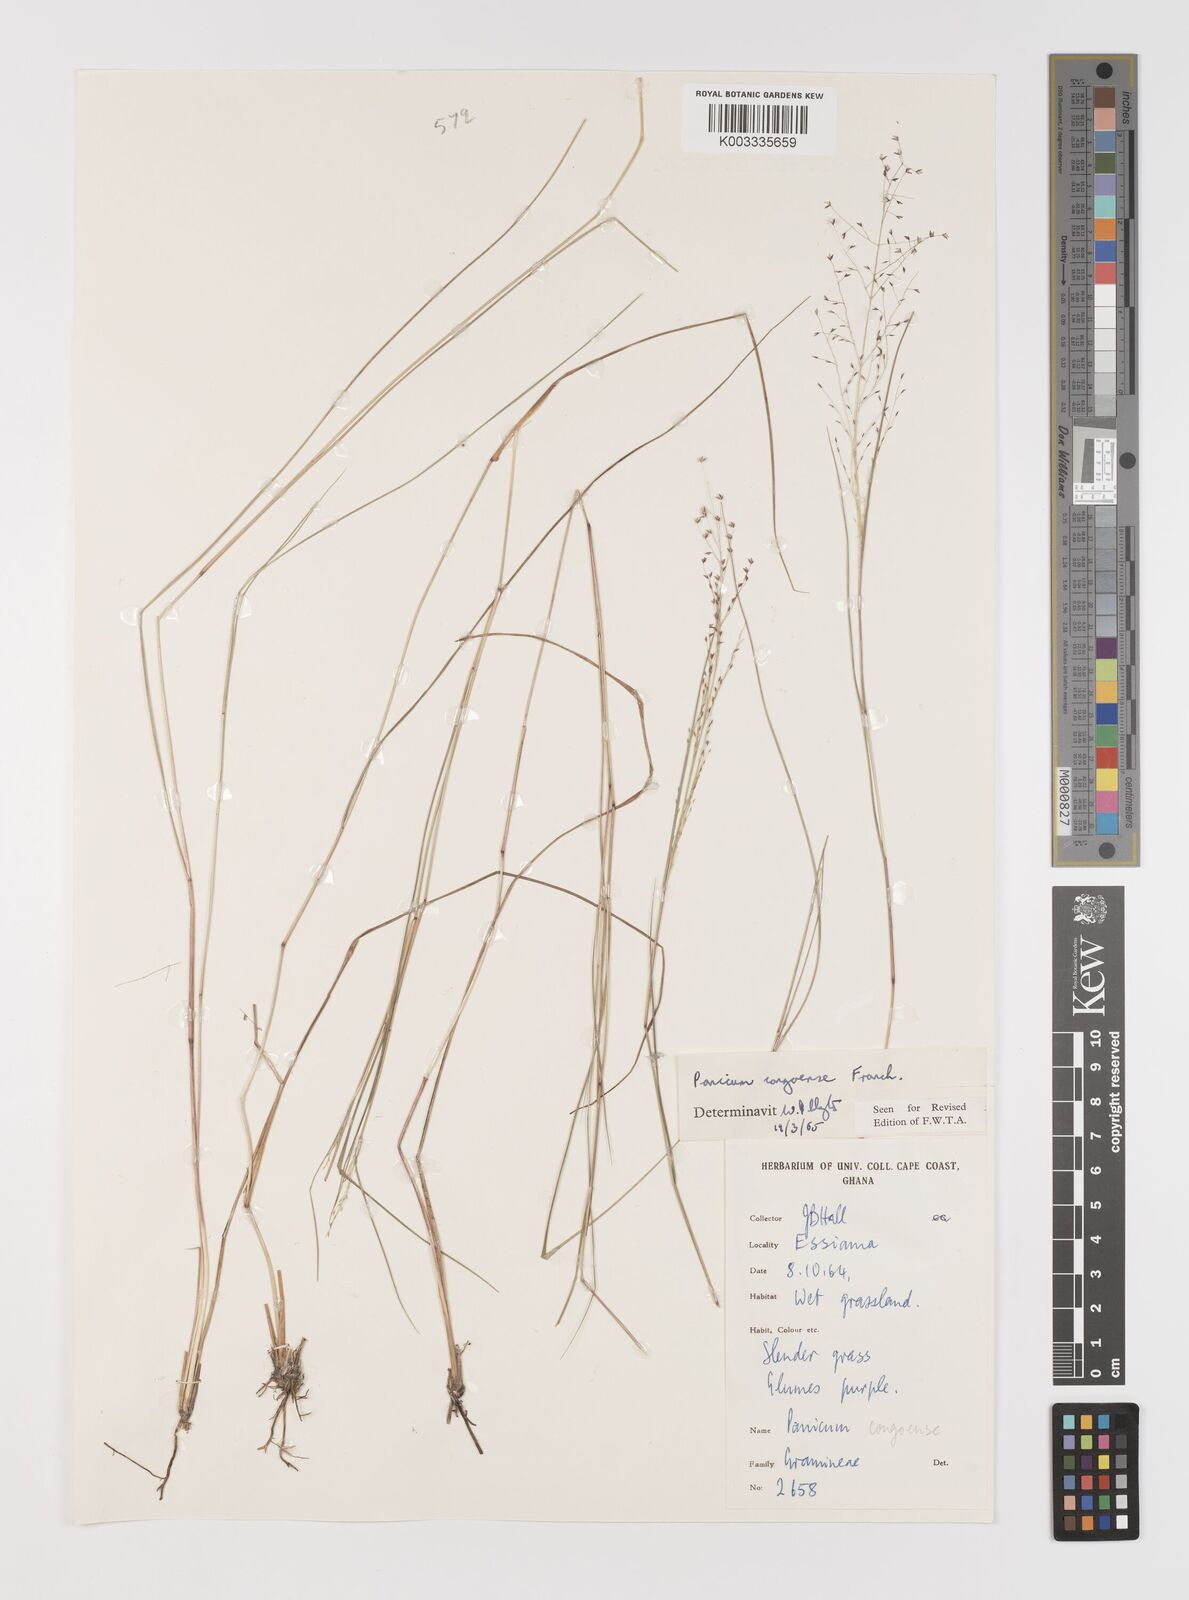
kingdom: Plantae
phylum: Tracheophyta
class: Liliopsida
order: Poales
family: Poaceae
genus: Panicum
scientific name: Panicum congoense
